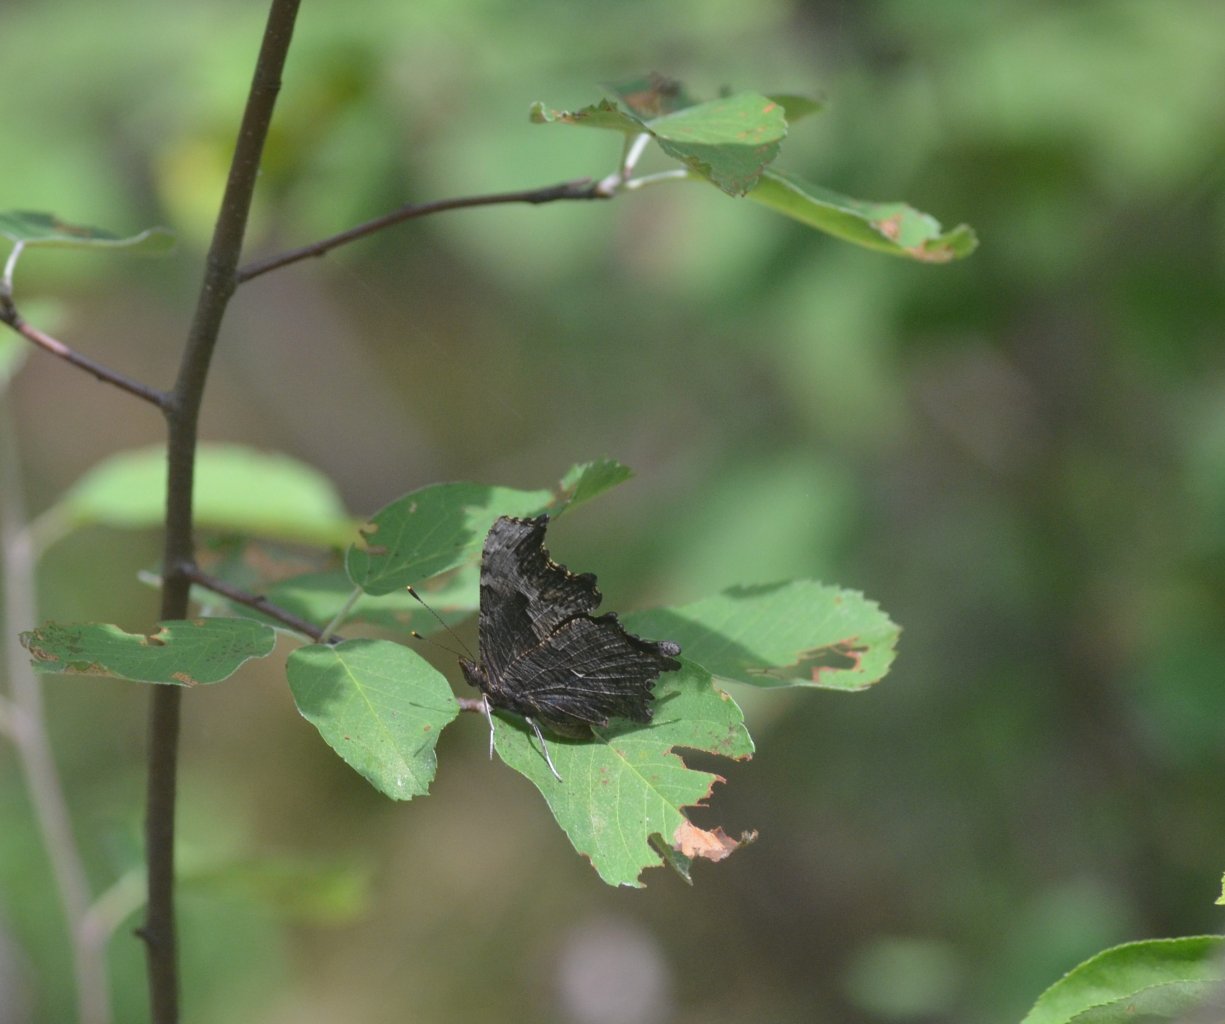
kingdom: Animalia
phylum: Arthropoda
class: Insecta
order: Lepidoptera
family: Nymphalidae
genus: Polygonia
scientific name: Polygonia progne
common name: Gray Comma
